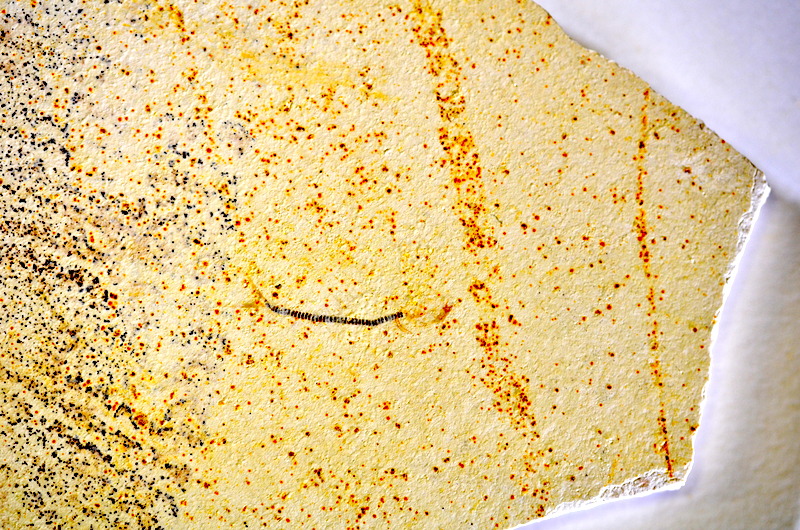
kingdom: Animalia
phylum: Chordata
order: Salmoniformes
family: Orthogonikleithridae
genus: Orthogonikleithrus
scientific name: Orthogonikleithrus hoelli
